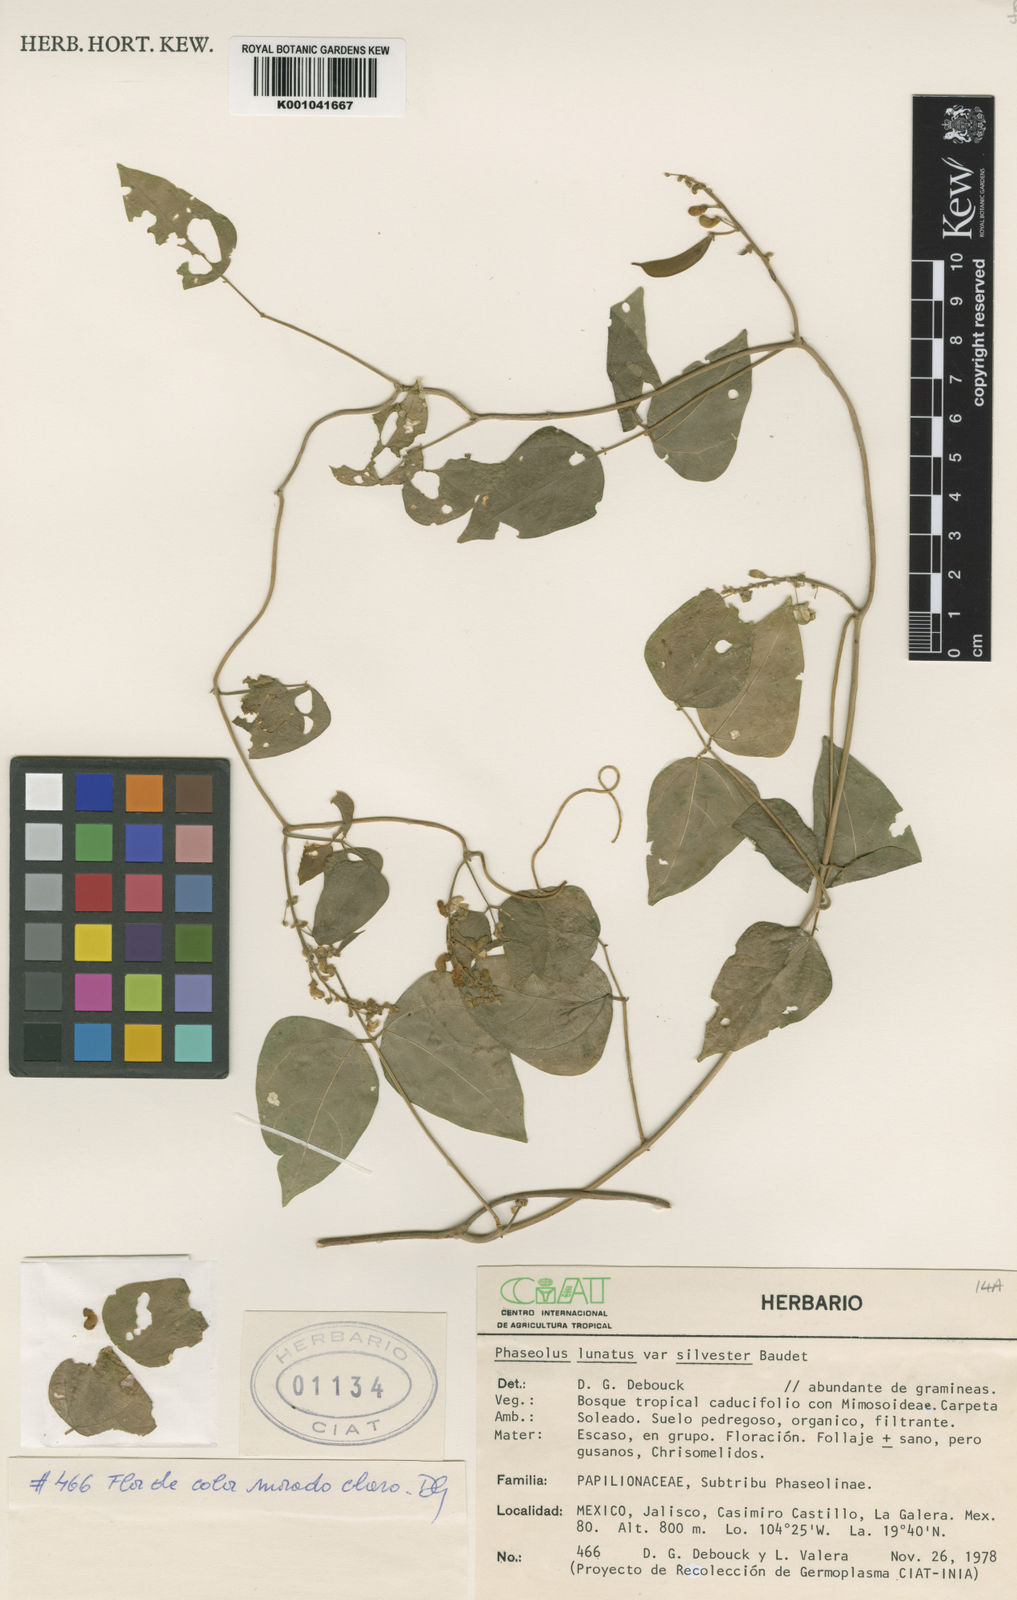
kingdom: Plantae
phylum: Tracheophyta
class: Magnoliopsida
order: Fabales
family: Fabaceae
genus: Phaseolus
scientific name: Phaseolus lunatus
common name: Sieva bean
